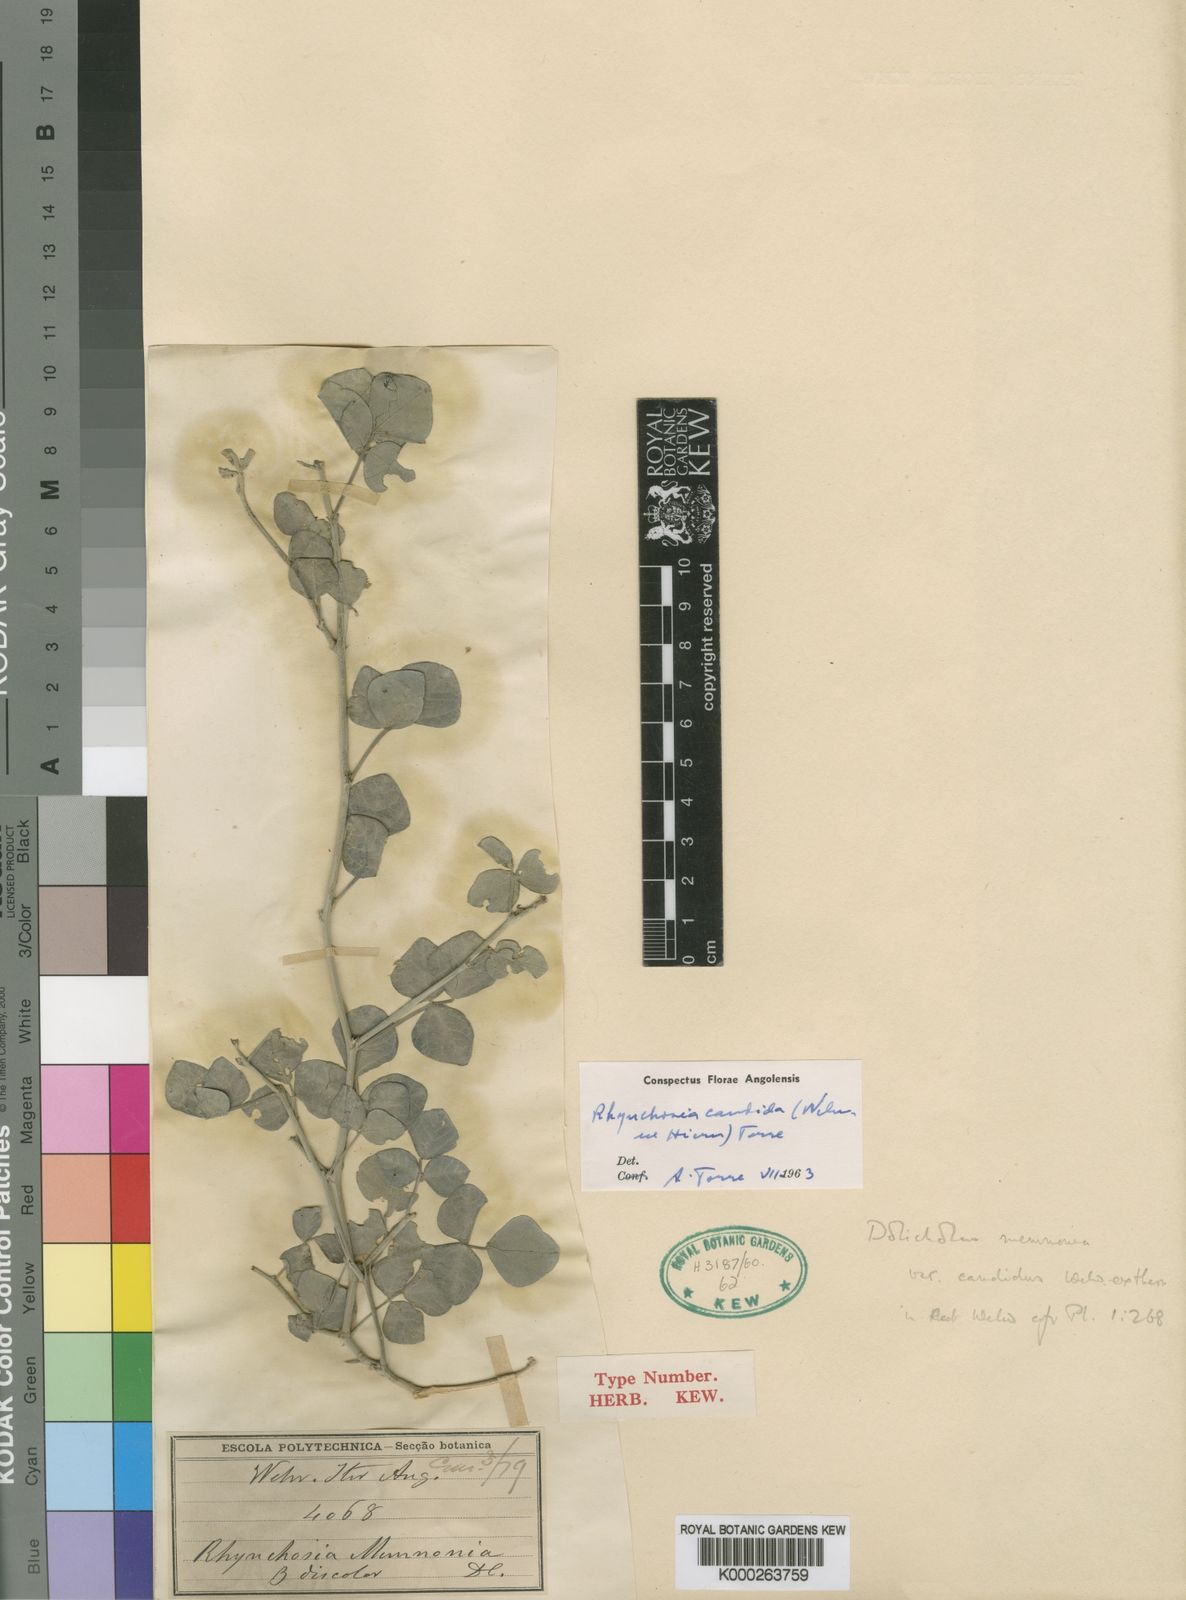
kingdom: Plantae
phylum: Tracheophyta
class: Magnoliopsida
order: Fabales
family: Fabaceae
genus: Rhynchosia
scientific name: Rhynchosia candida
